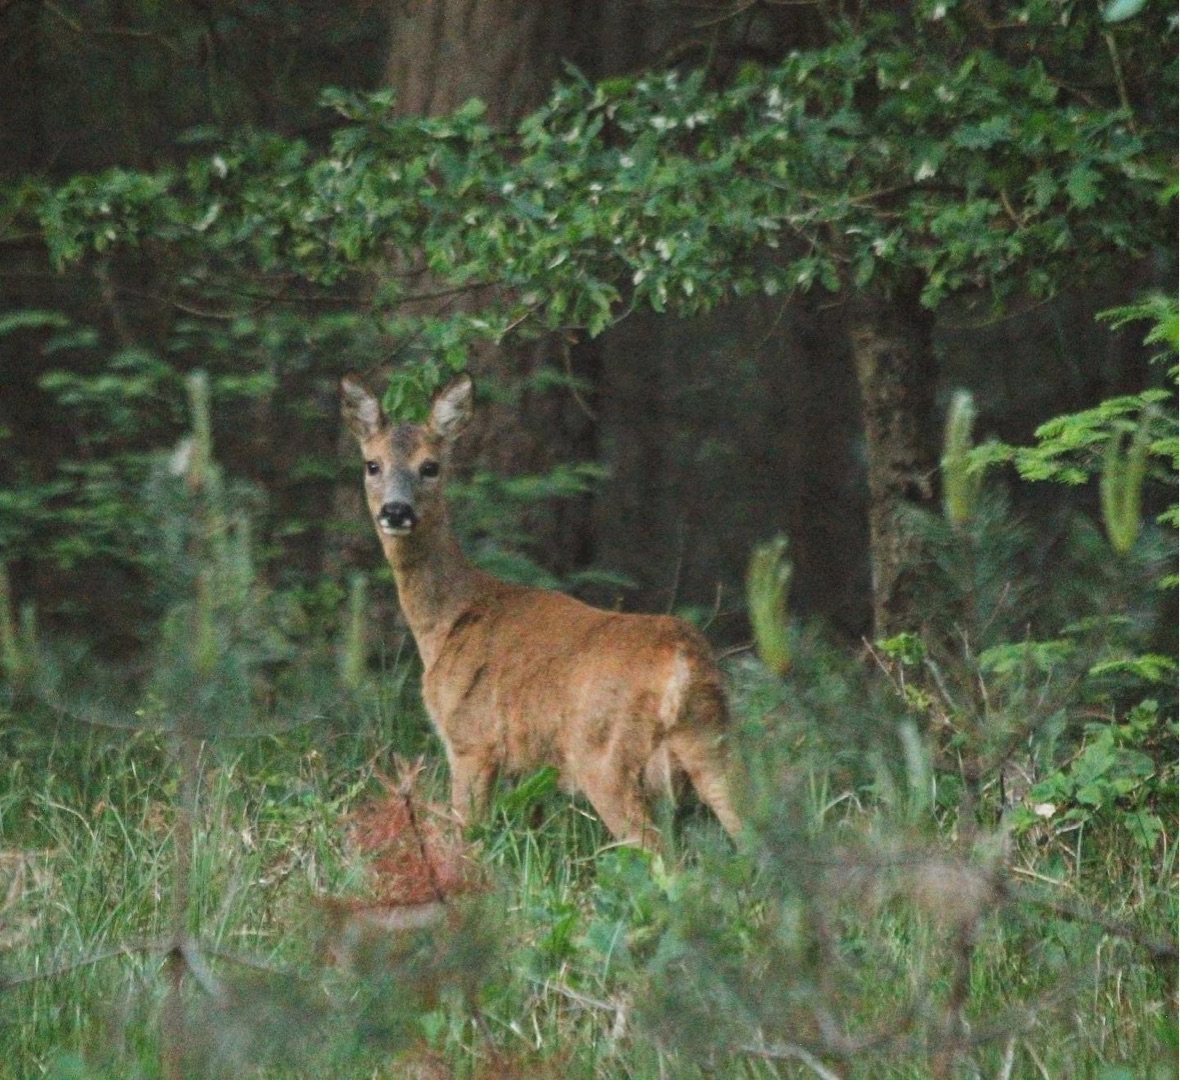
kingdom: Animalia
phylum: Chordata
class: Mammalia
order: Artiodactyla
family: Cervidae
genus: Capreolus
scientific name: Capreolus capreolus
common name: Rådyr
